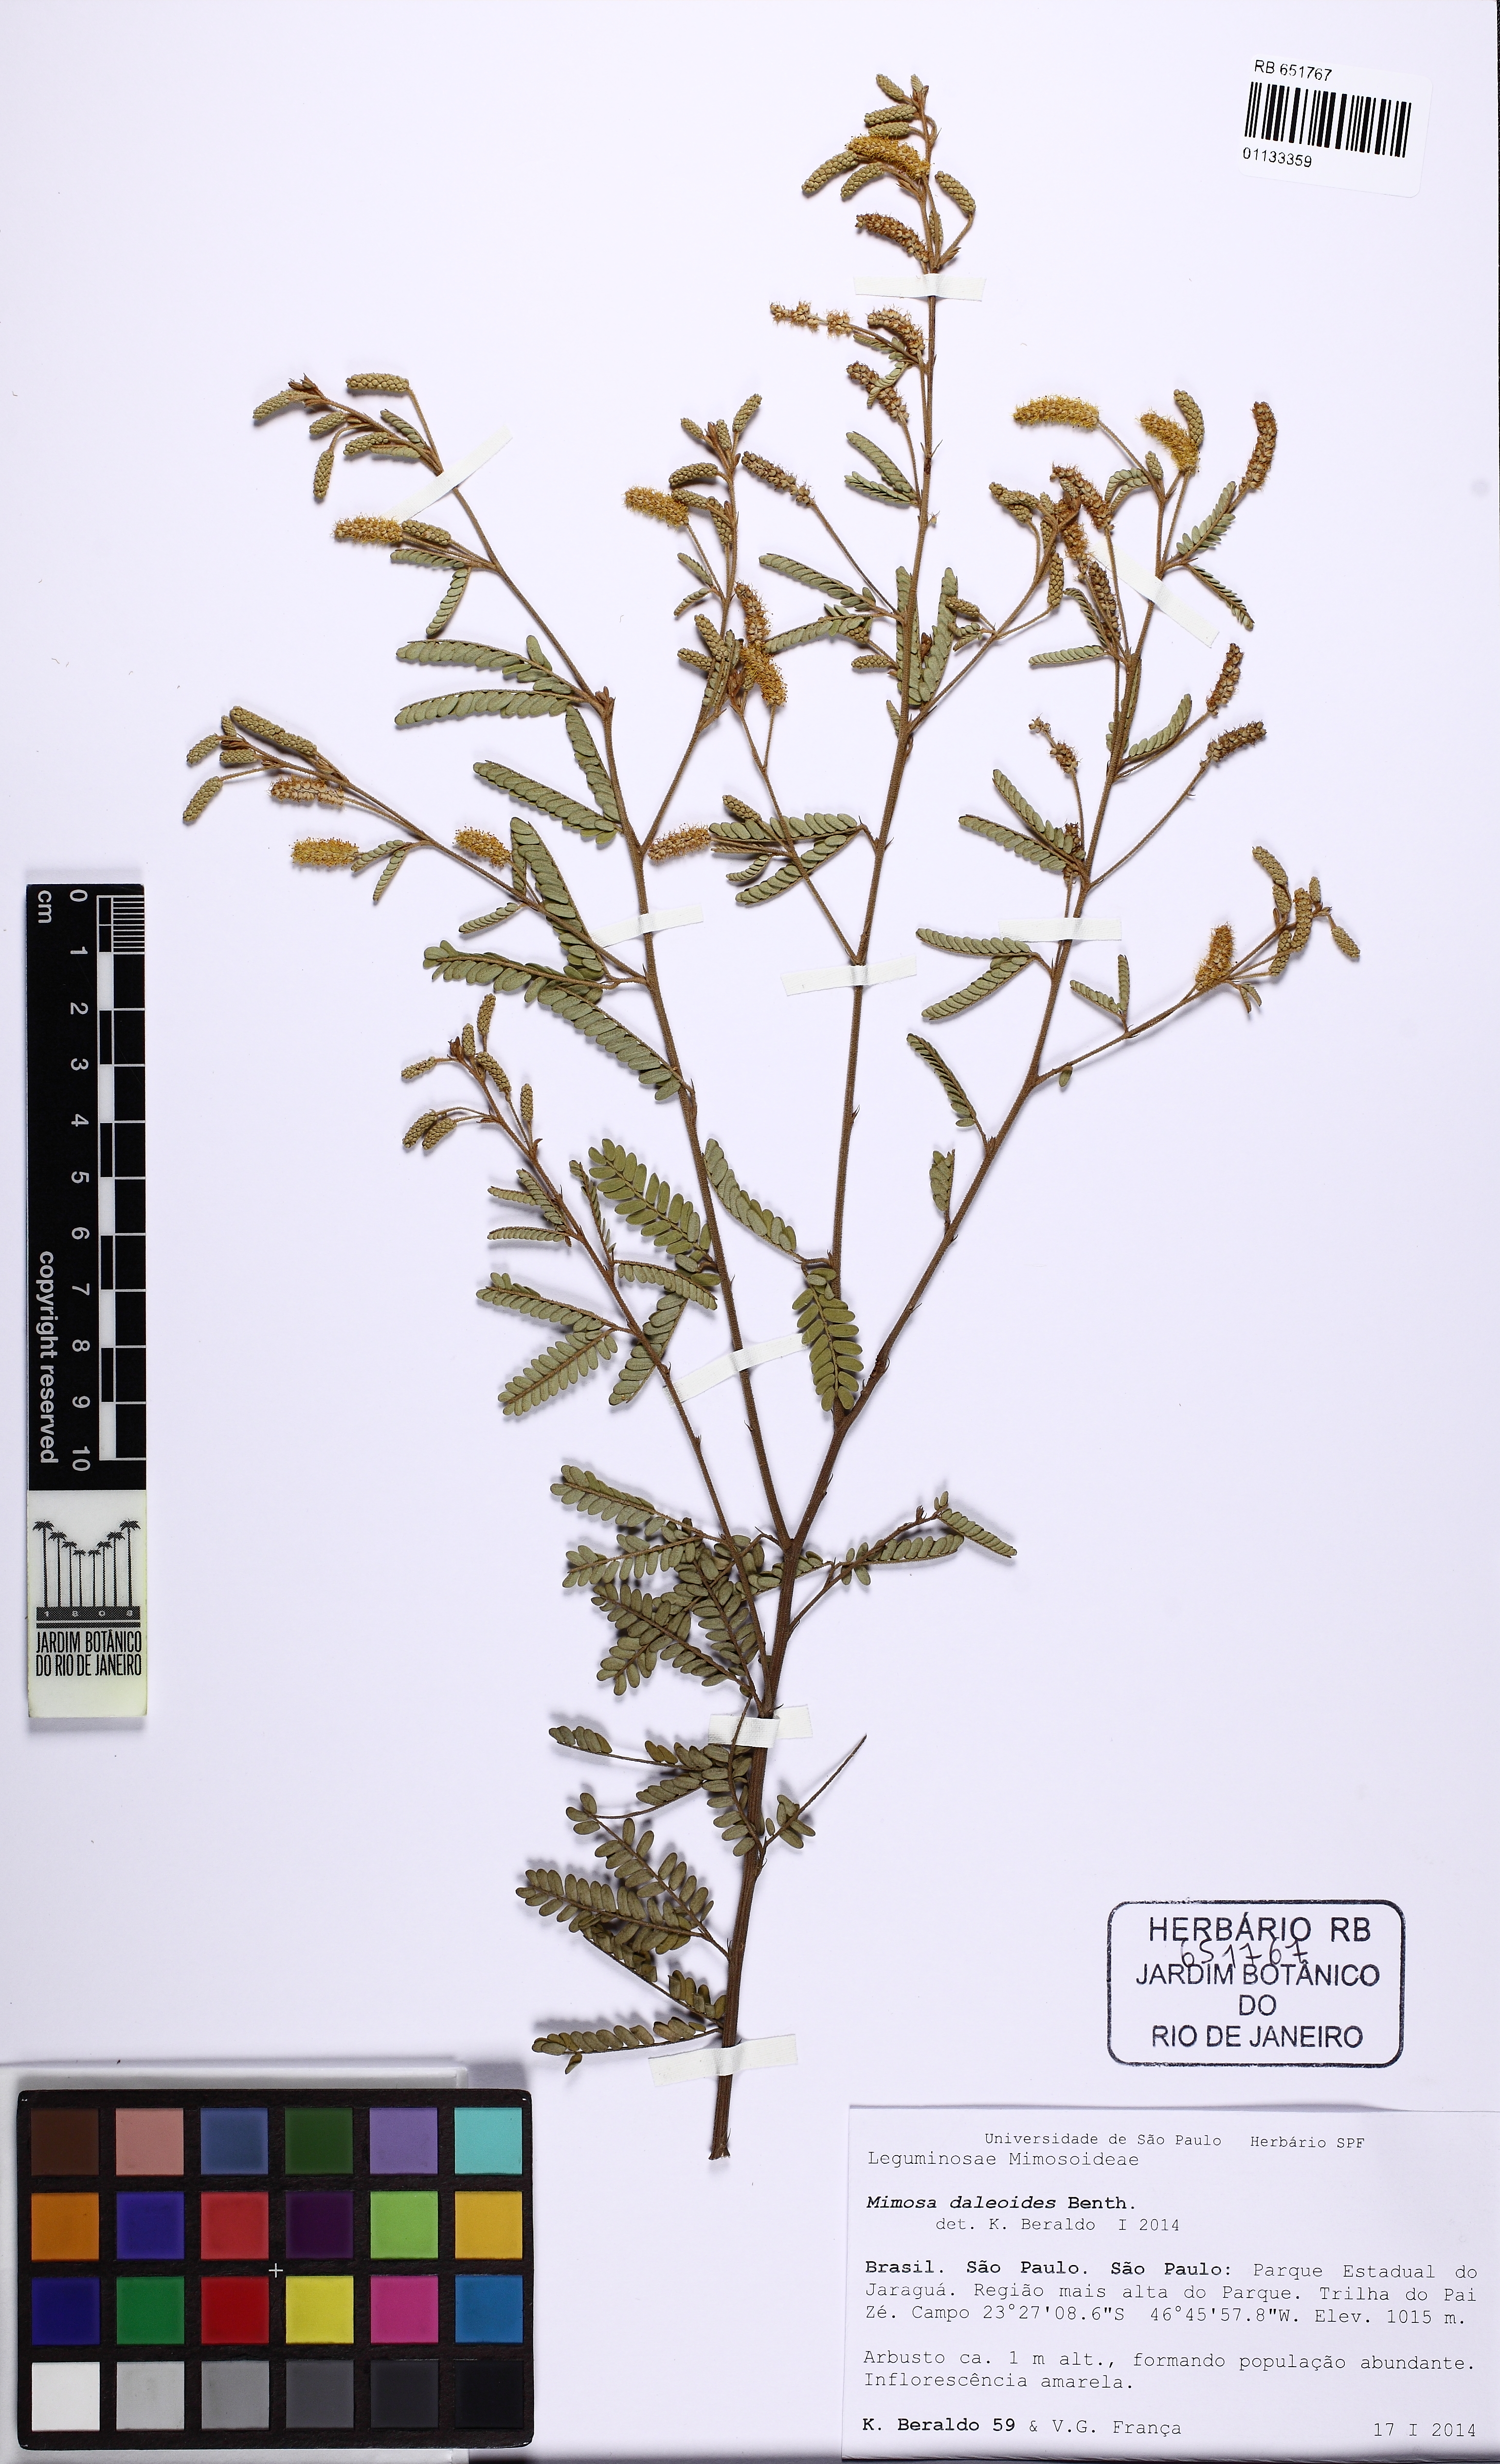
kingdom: Plantae
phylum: Tracheophyta
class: Magnoliopsida
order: Fabales
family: Fabaceae
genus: Mimosa
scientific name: Mimosa daleoides
